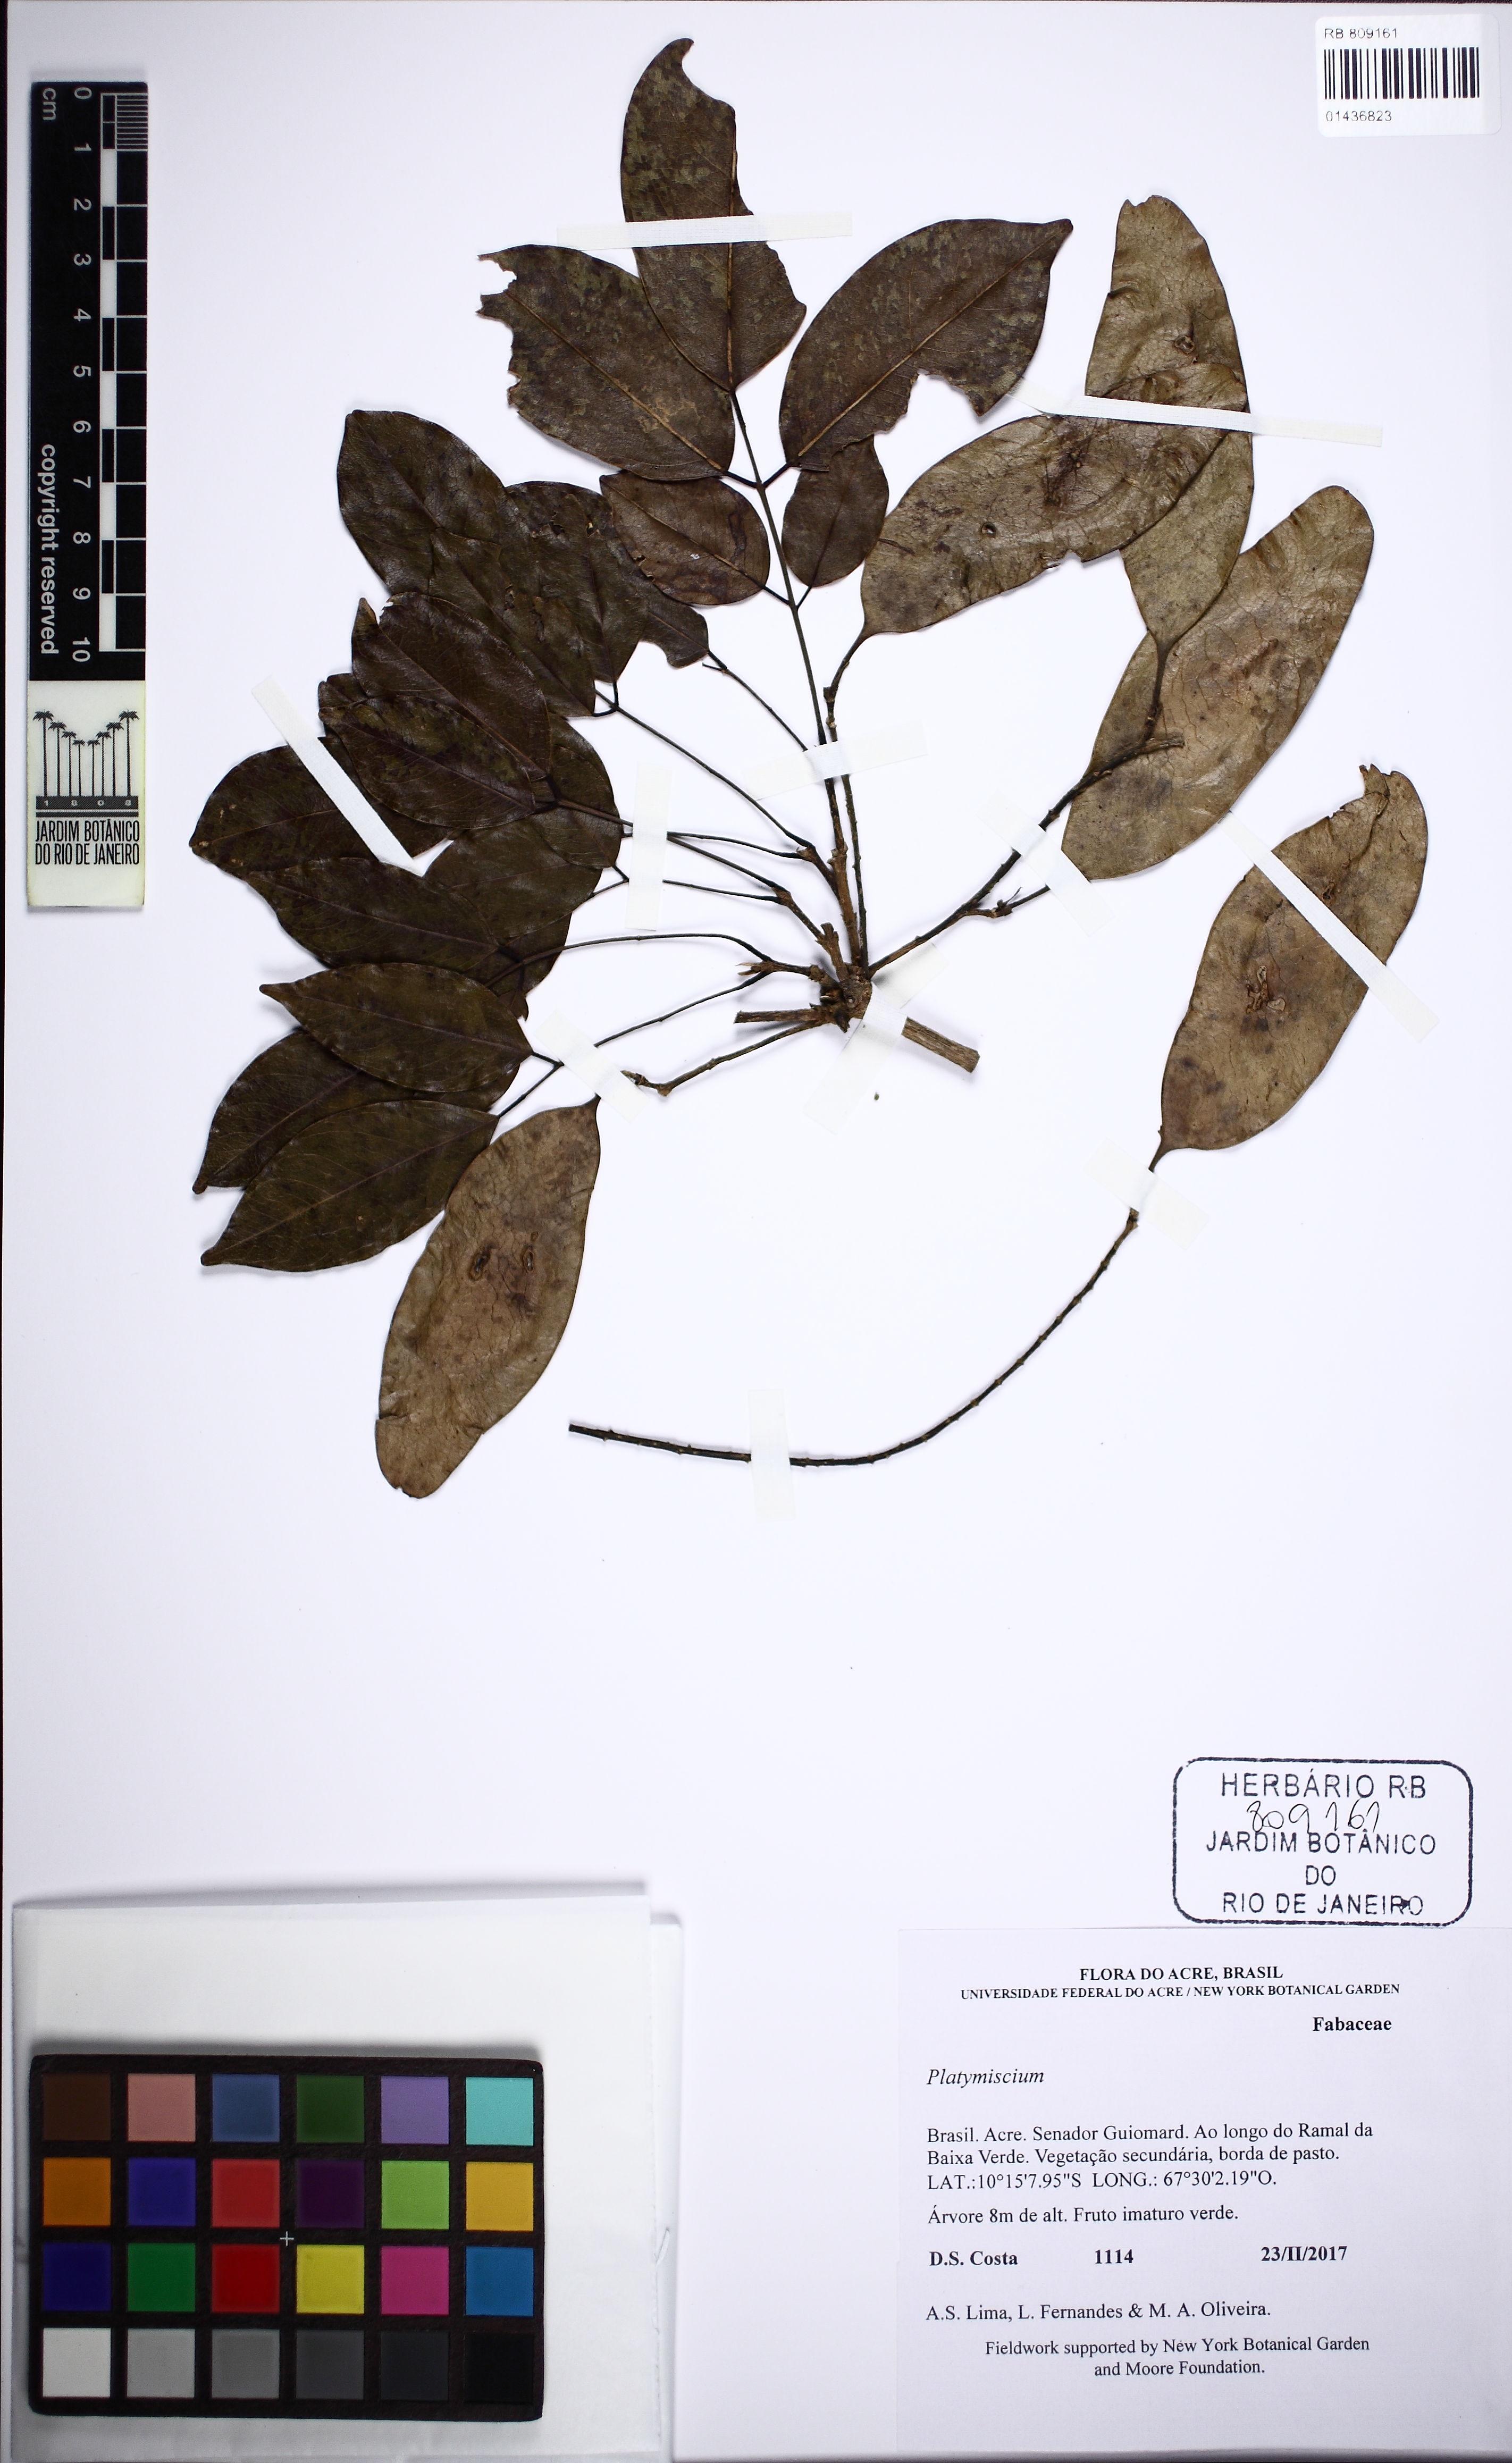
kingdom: Plantae
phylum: Tracheophyta
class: Magnoliopsida
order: Fabales
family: Fabaceae
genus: Platymiscium
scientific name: Platymiscium
